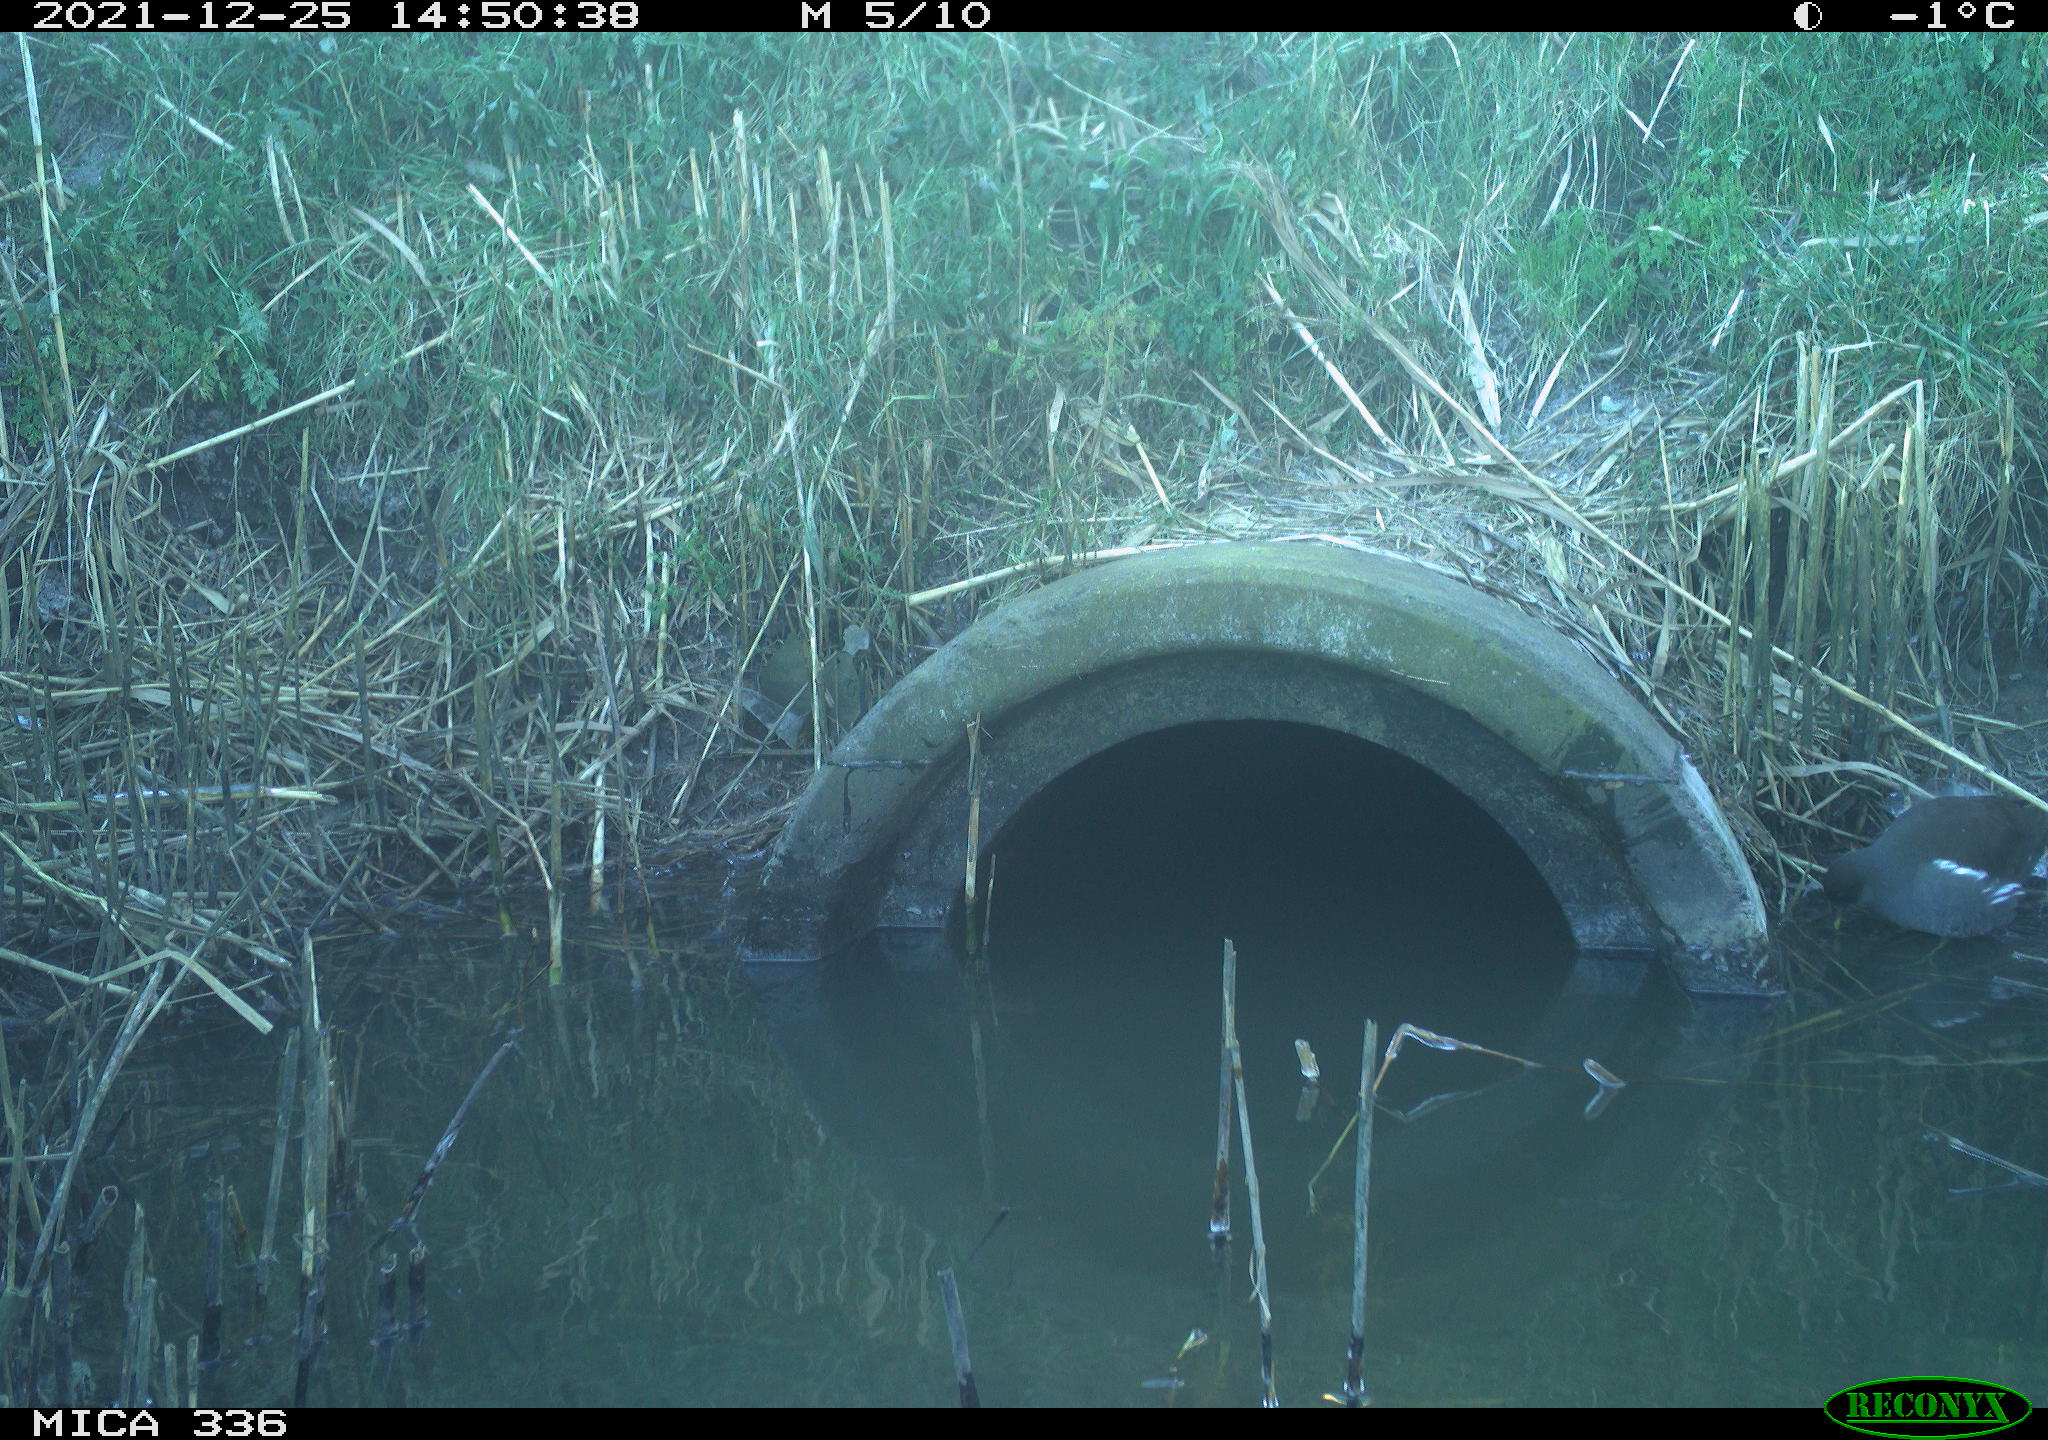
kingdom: Animalia
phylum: Chordata
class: Aves
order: Gruiformes
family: Rallidae
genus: Gallinula
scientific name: Gallinula chloropus
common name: Common moorhen
